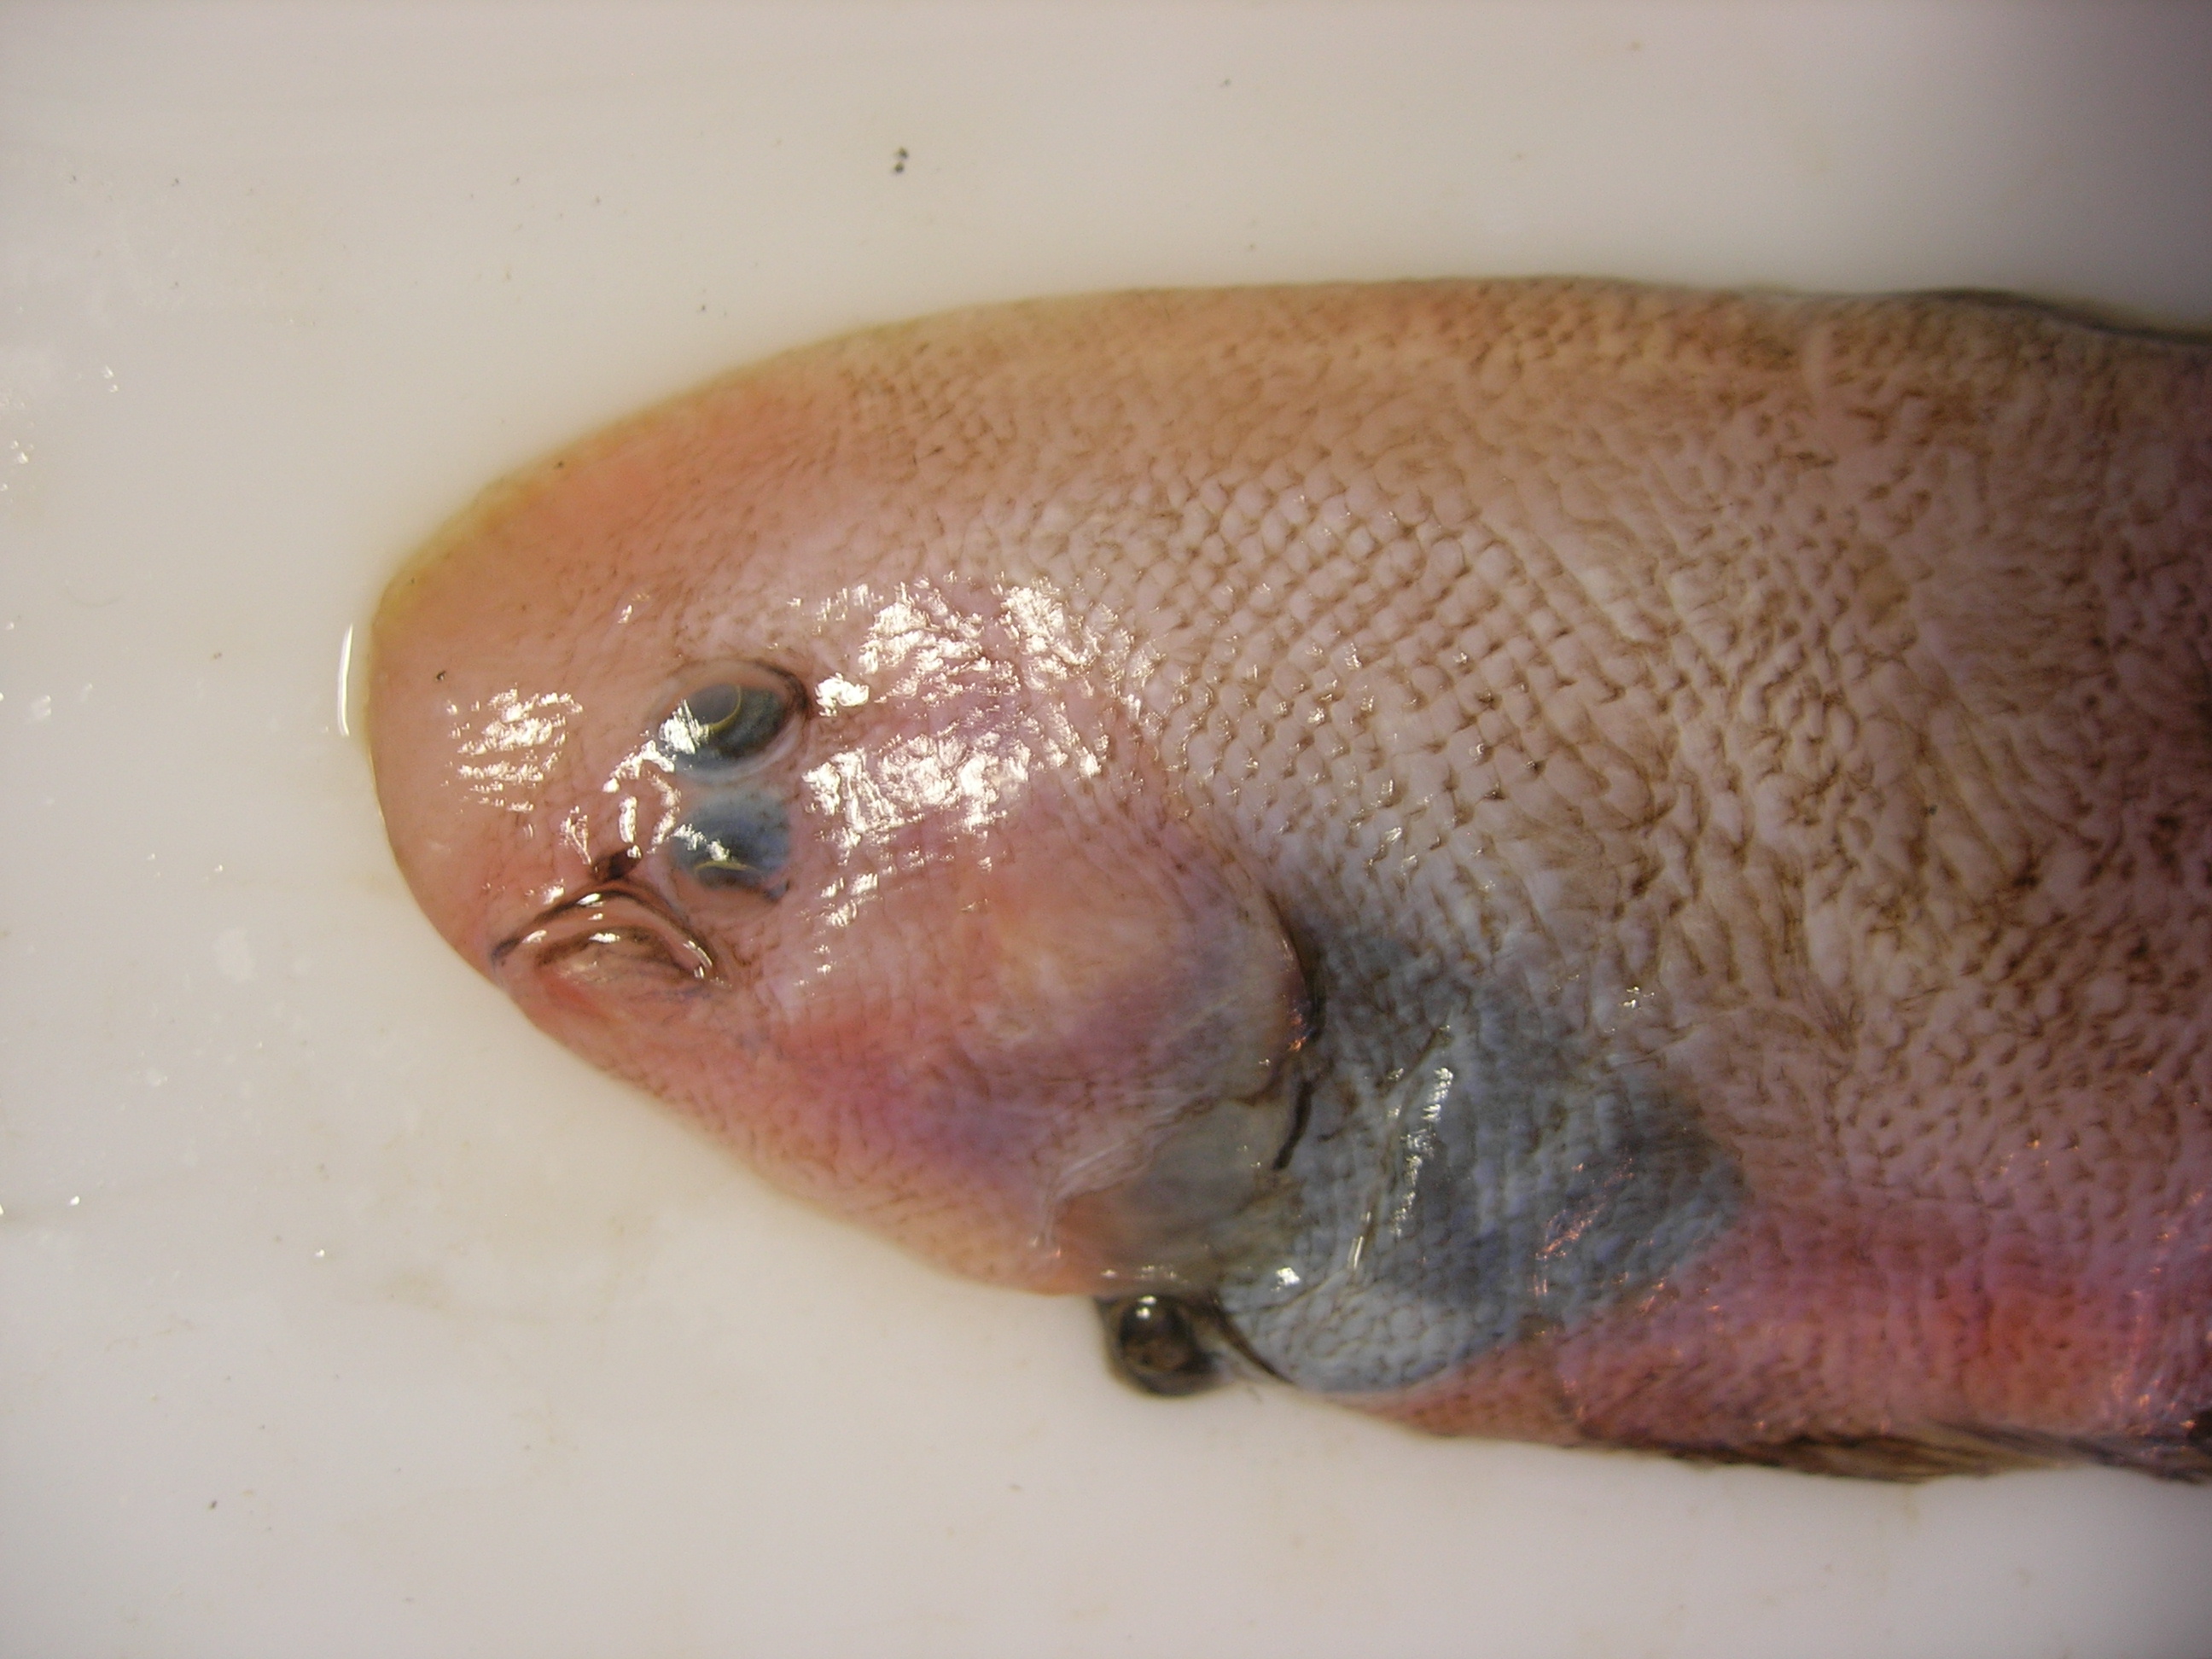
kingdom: Animalia
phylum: Chordata
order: Pleuronectiformes
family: Cynoglossidae
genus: Cynoglossus
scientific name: Cynoglossus
